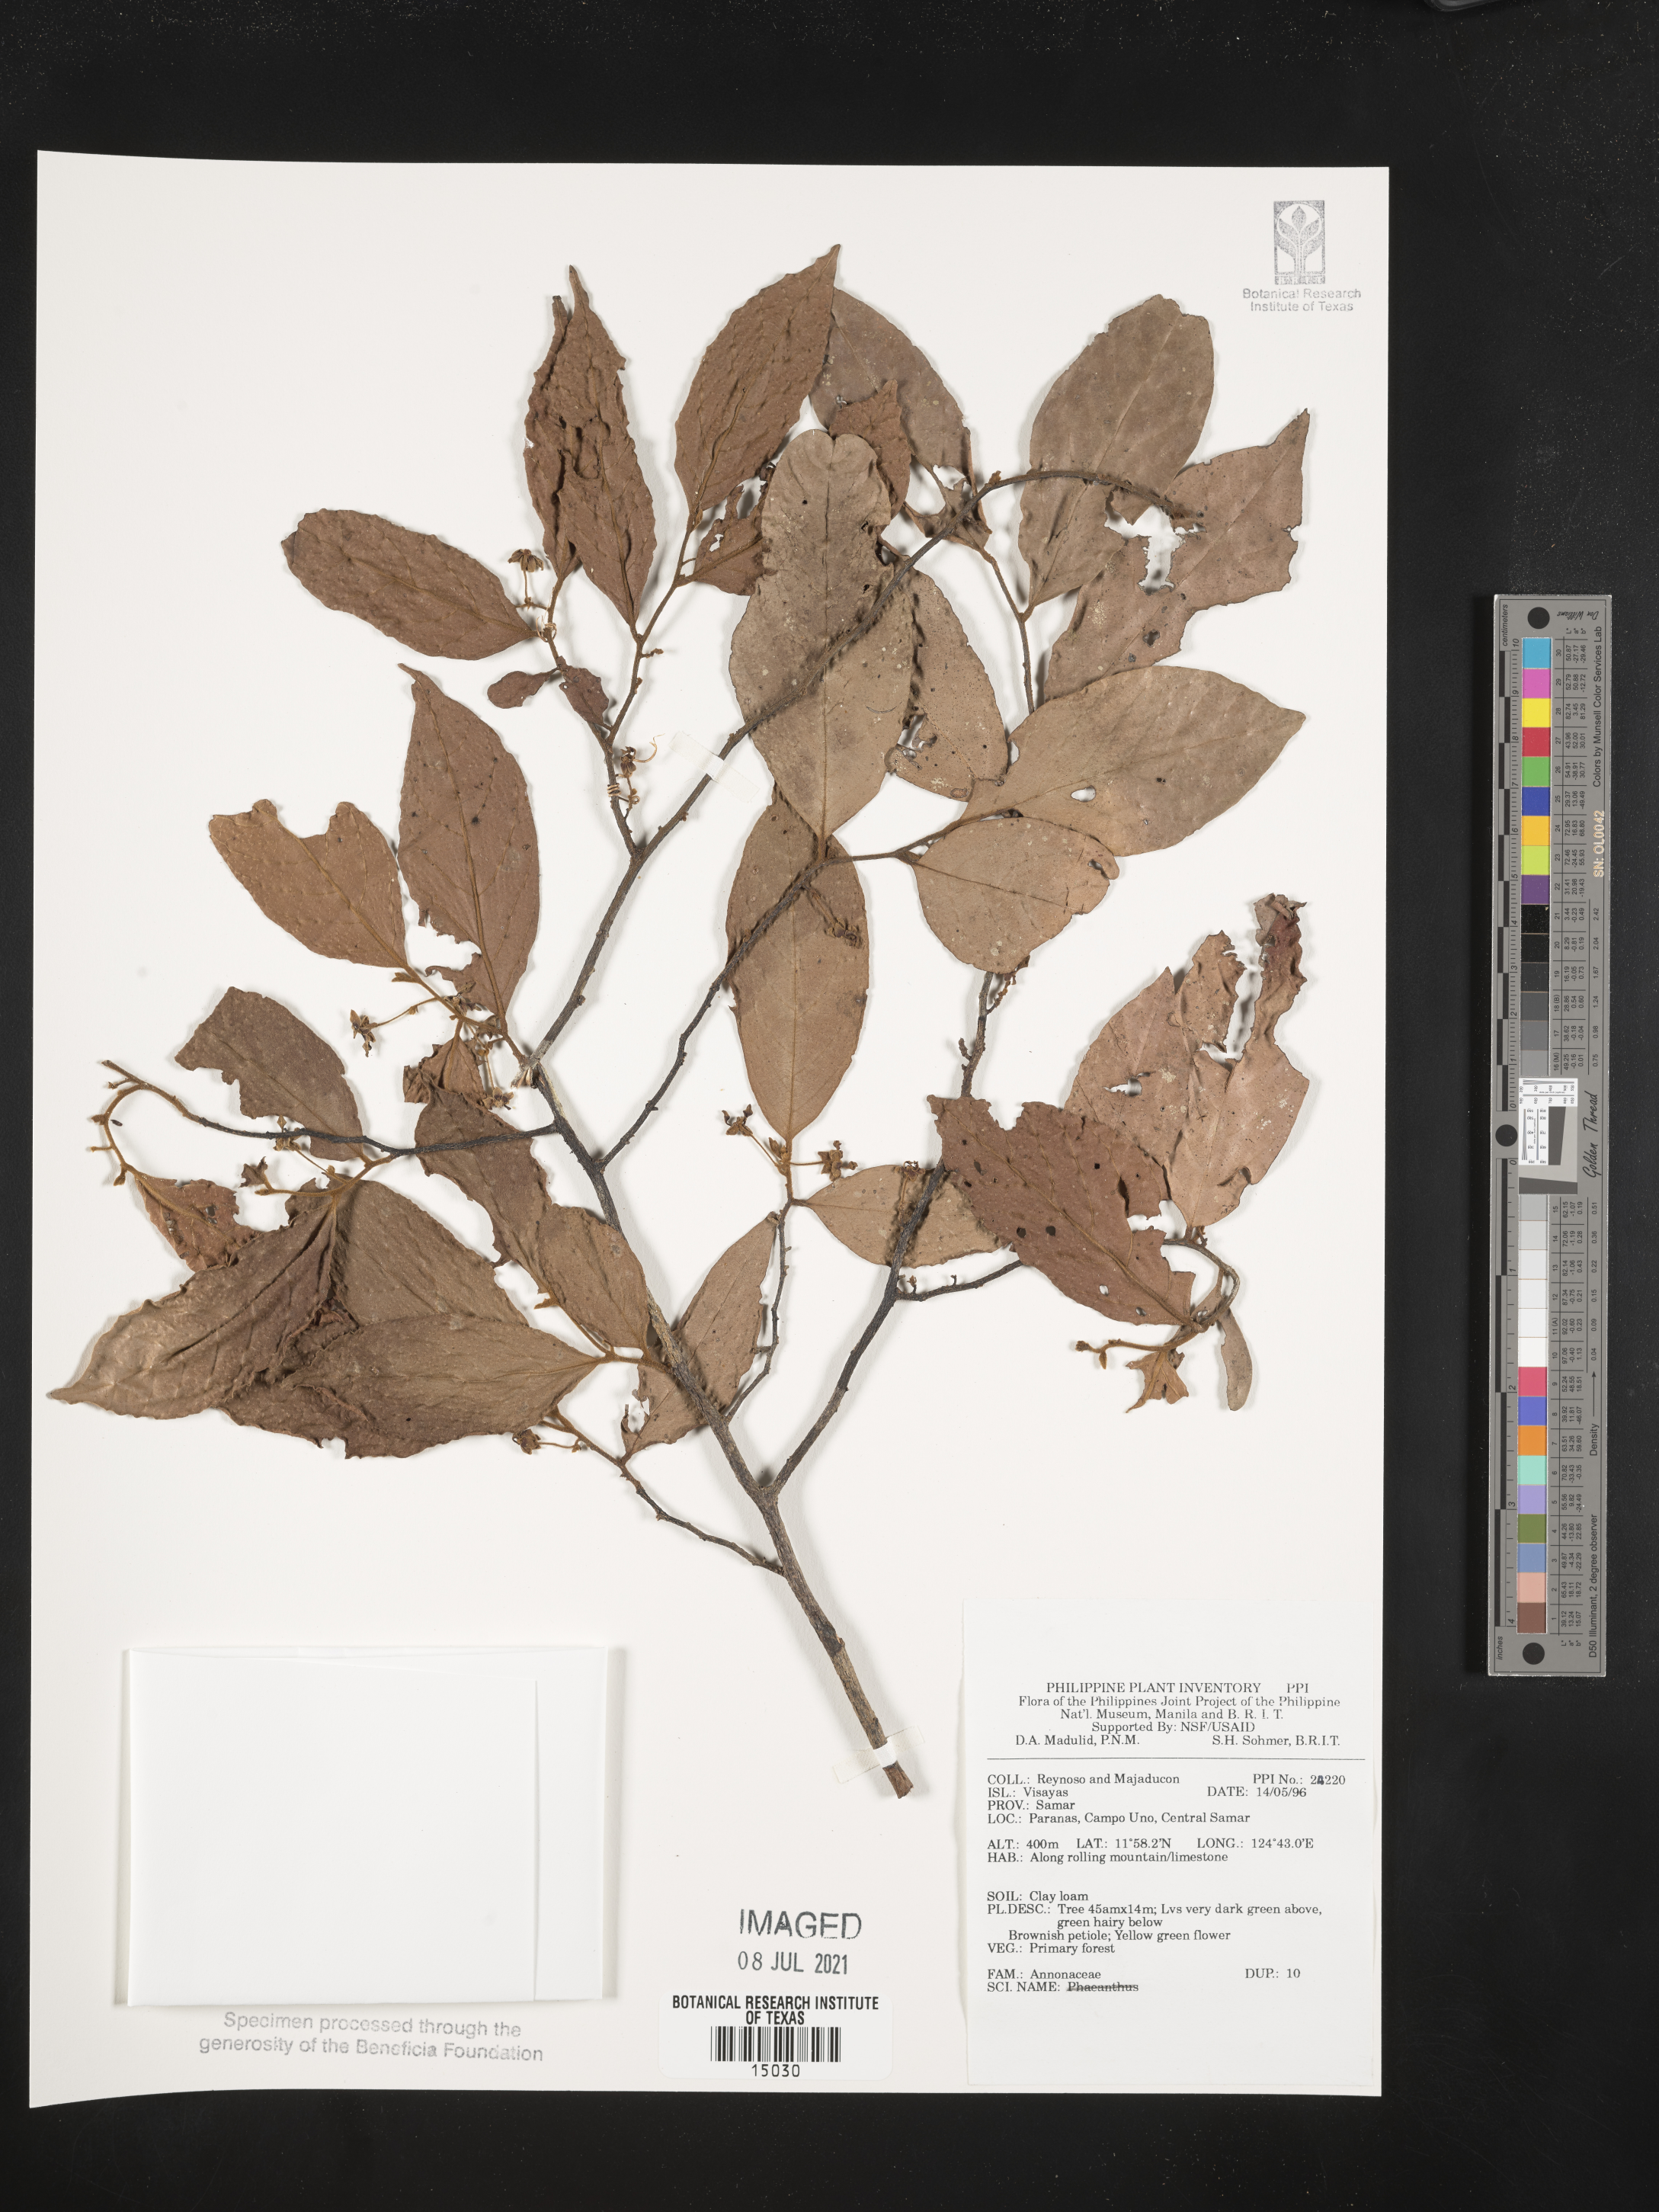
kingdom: Plantae
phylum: Tracheophyta
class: Magnoliopsida
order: Magnoliales
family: Annonaceae
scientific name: Annonaceae
